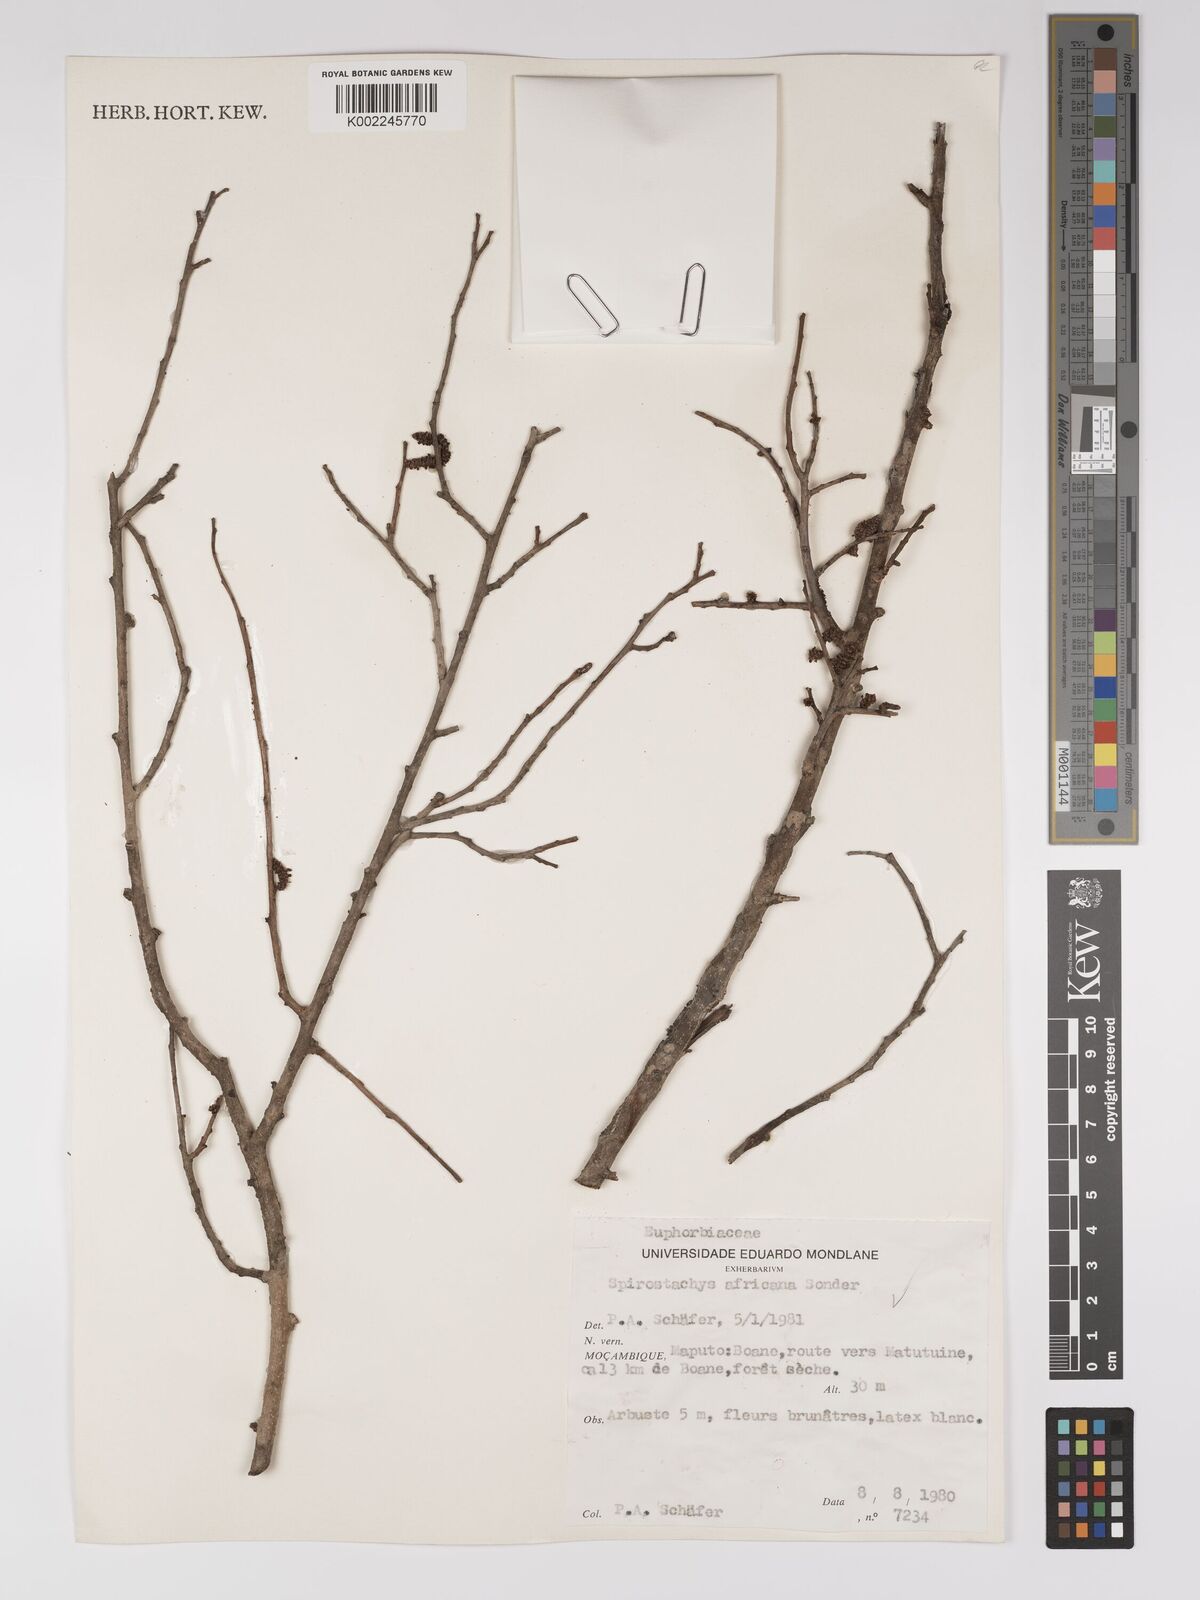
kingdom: Plantae
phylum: Tracheophyta
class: Magnoliopsida
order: Malpighiales
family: Euphorbiaceae
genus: Spirostachys
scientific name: Spirostachys africana
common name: Tamboti
